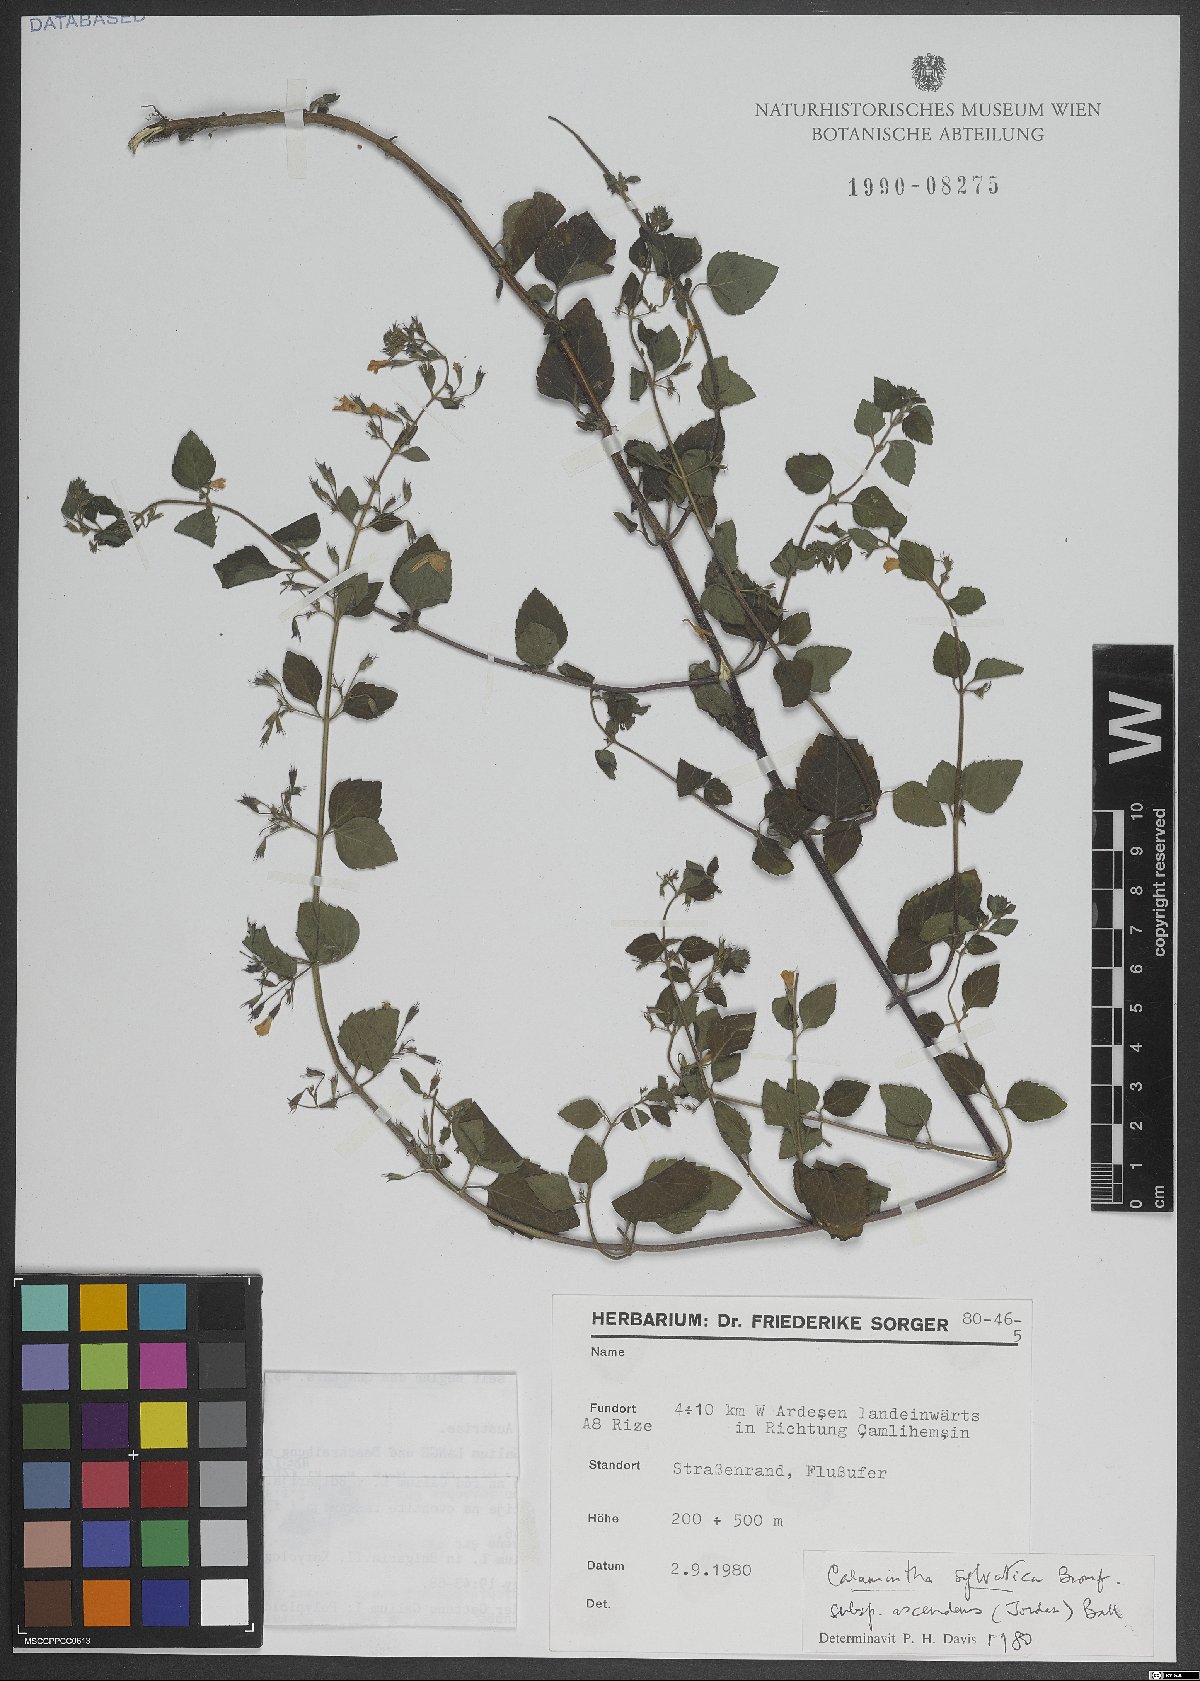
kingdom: Plantae
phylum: Tracheophyta
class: Magnoliopsida
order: Lamiales
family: Lamiaceae
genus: Clinopodium
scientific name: Clinopodium menthifolium
